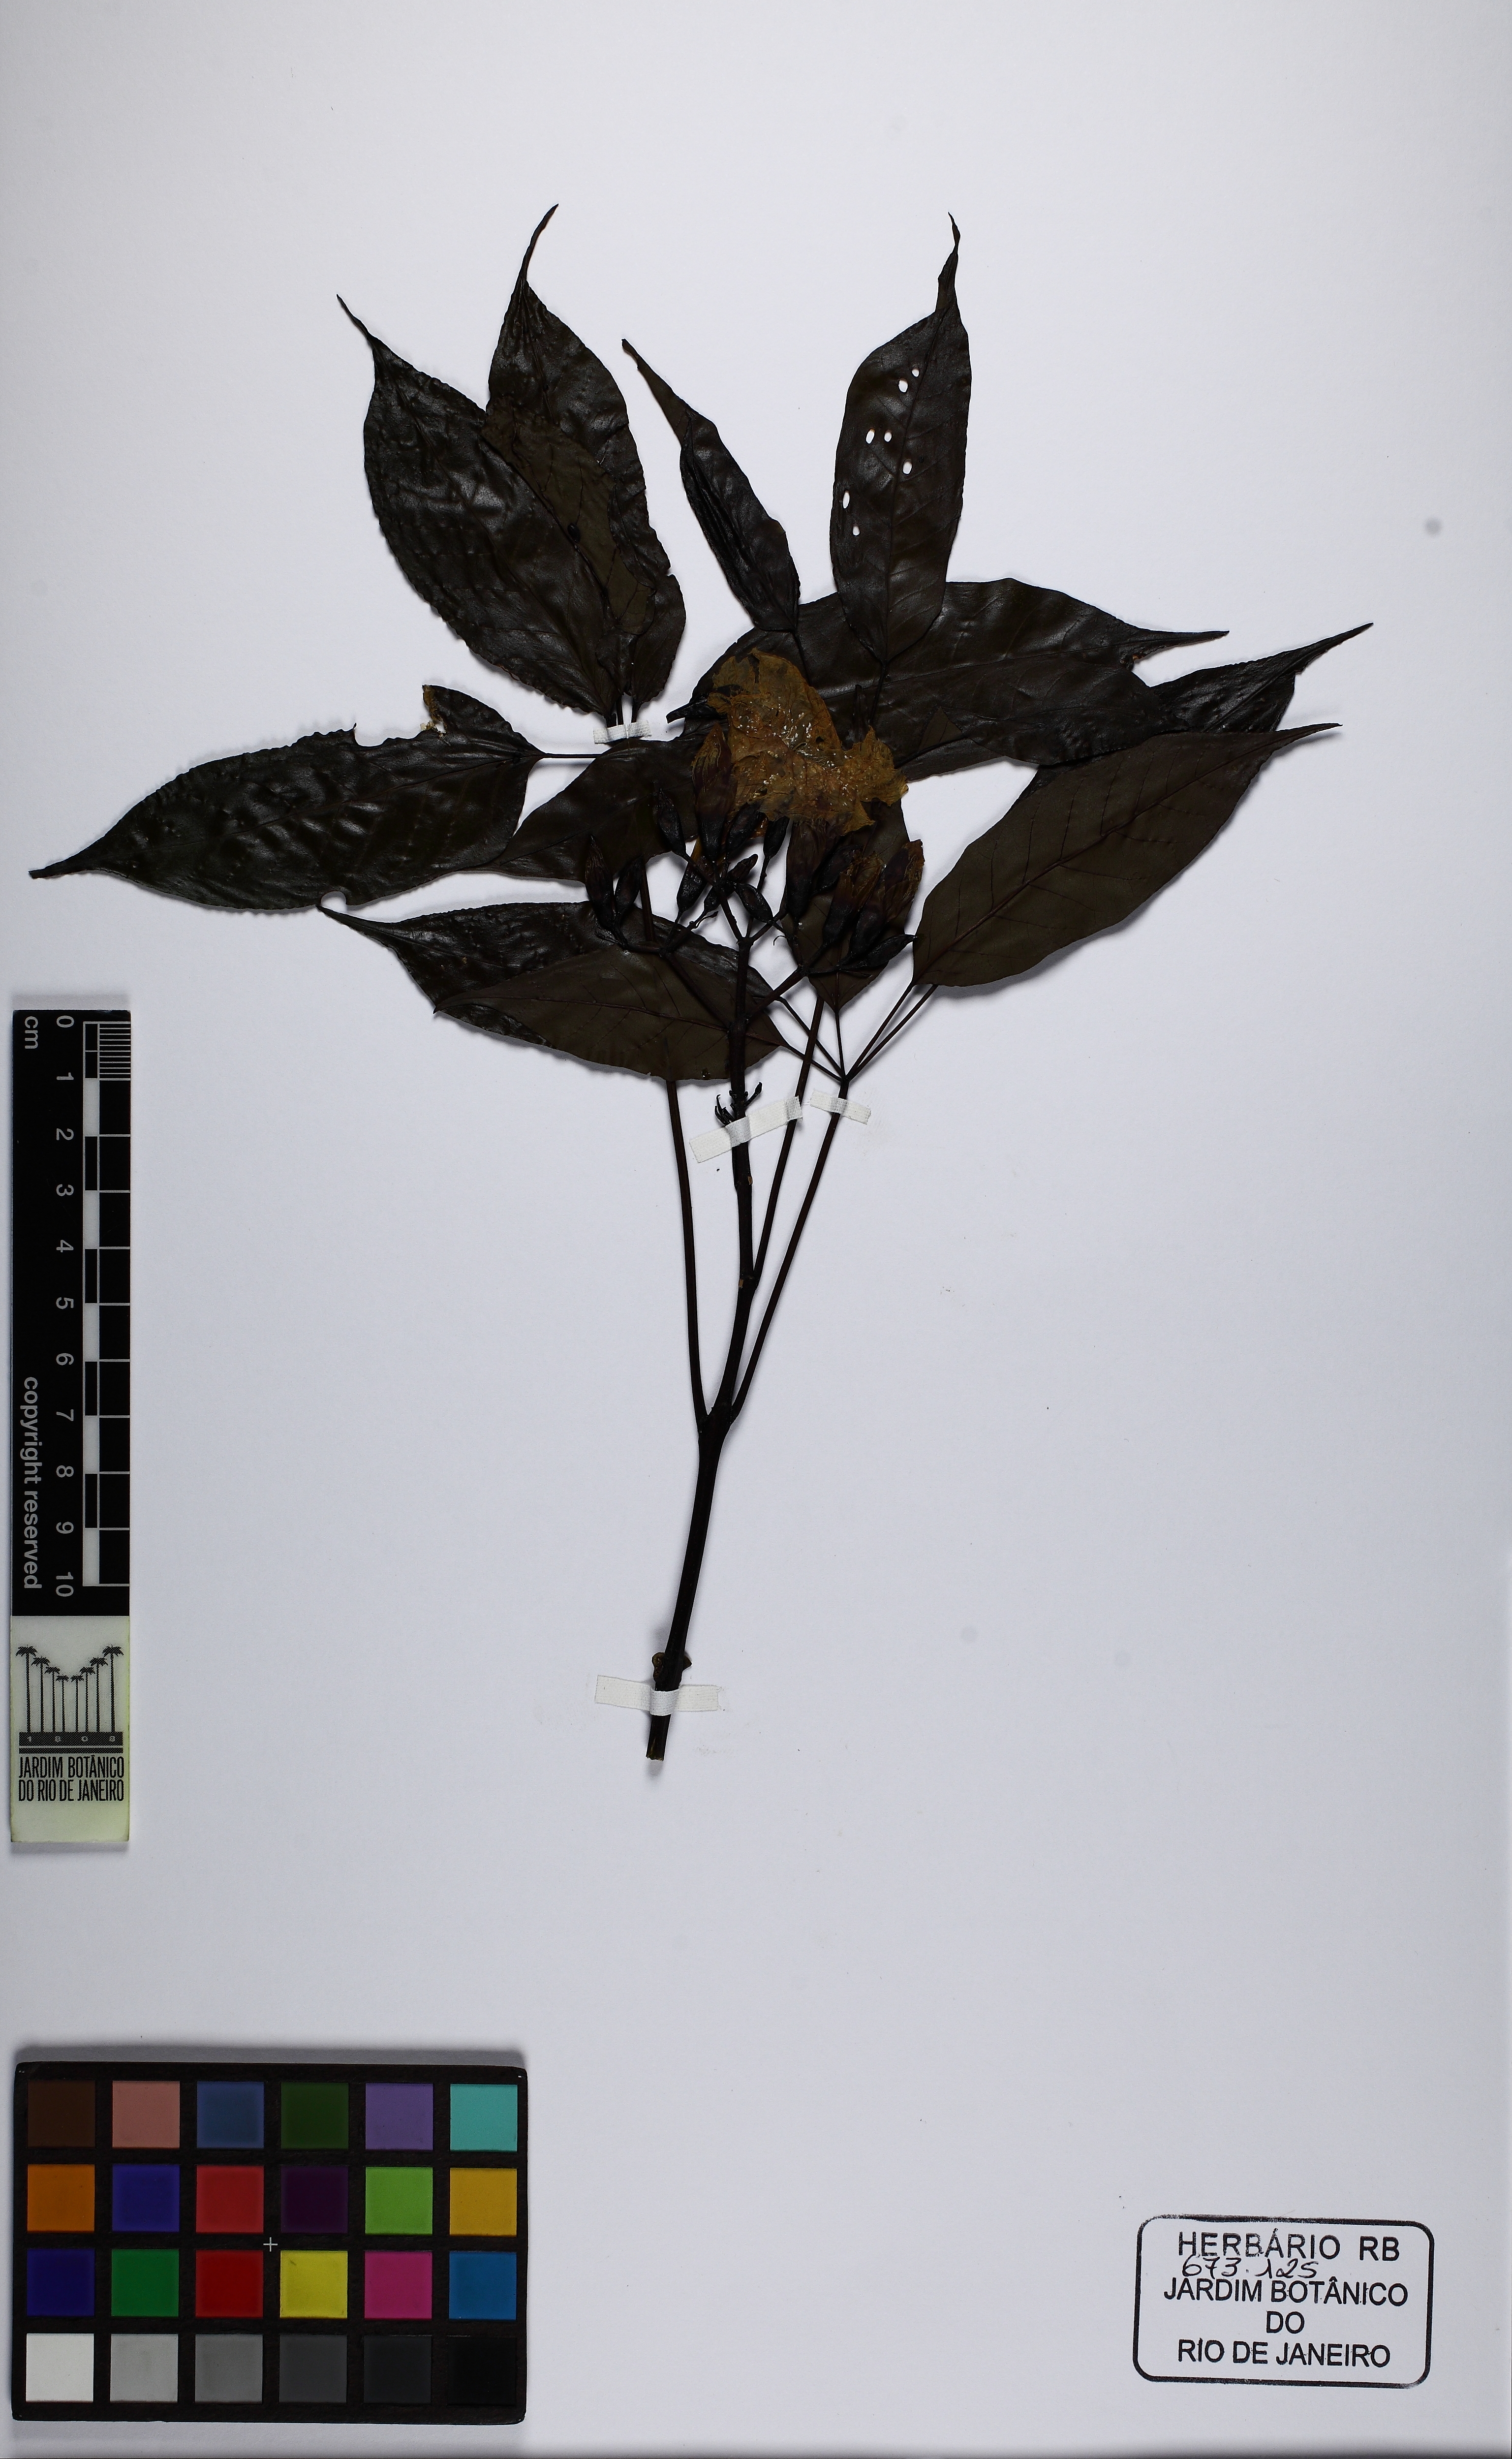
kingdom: Plantae
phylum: Tracheophyta
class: Magnoliopsida
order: Lamiales
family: Bignoniaceae
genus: Sparattosperma
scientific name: Sparattosperma leucanthum
